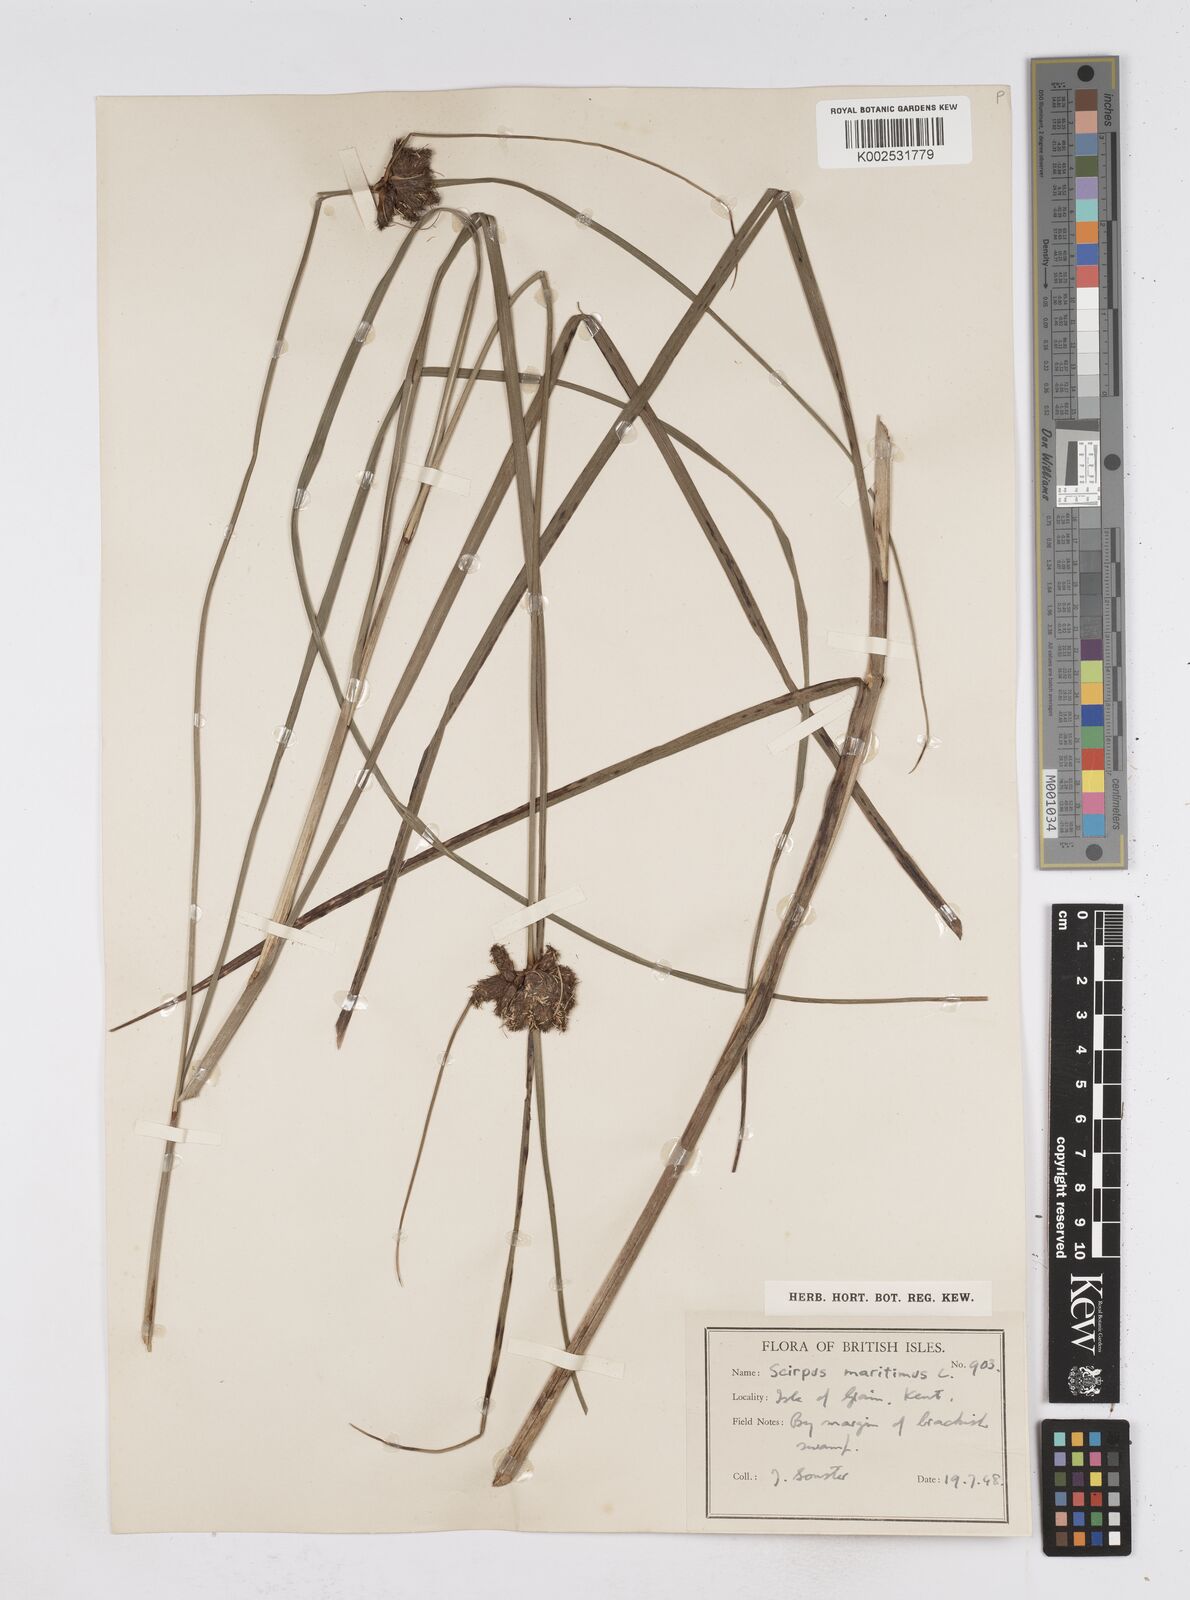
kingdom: Plantae
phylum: Tracheophyta
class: Liliopsida
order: Poales
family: Cyperaceae
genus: Bolboschoenus
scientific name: Bolboschoenus maritimus
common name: Sea club-rush
